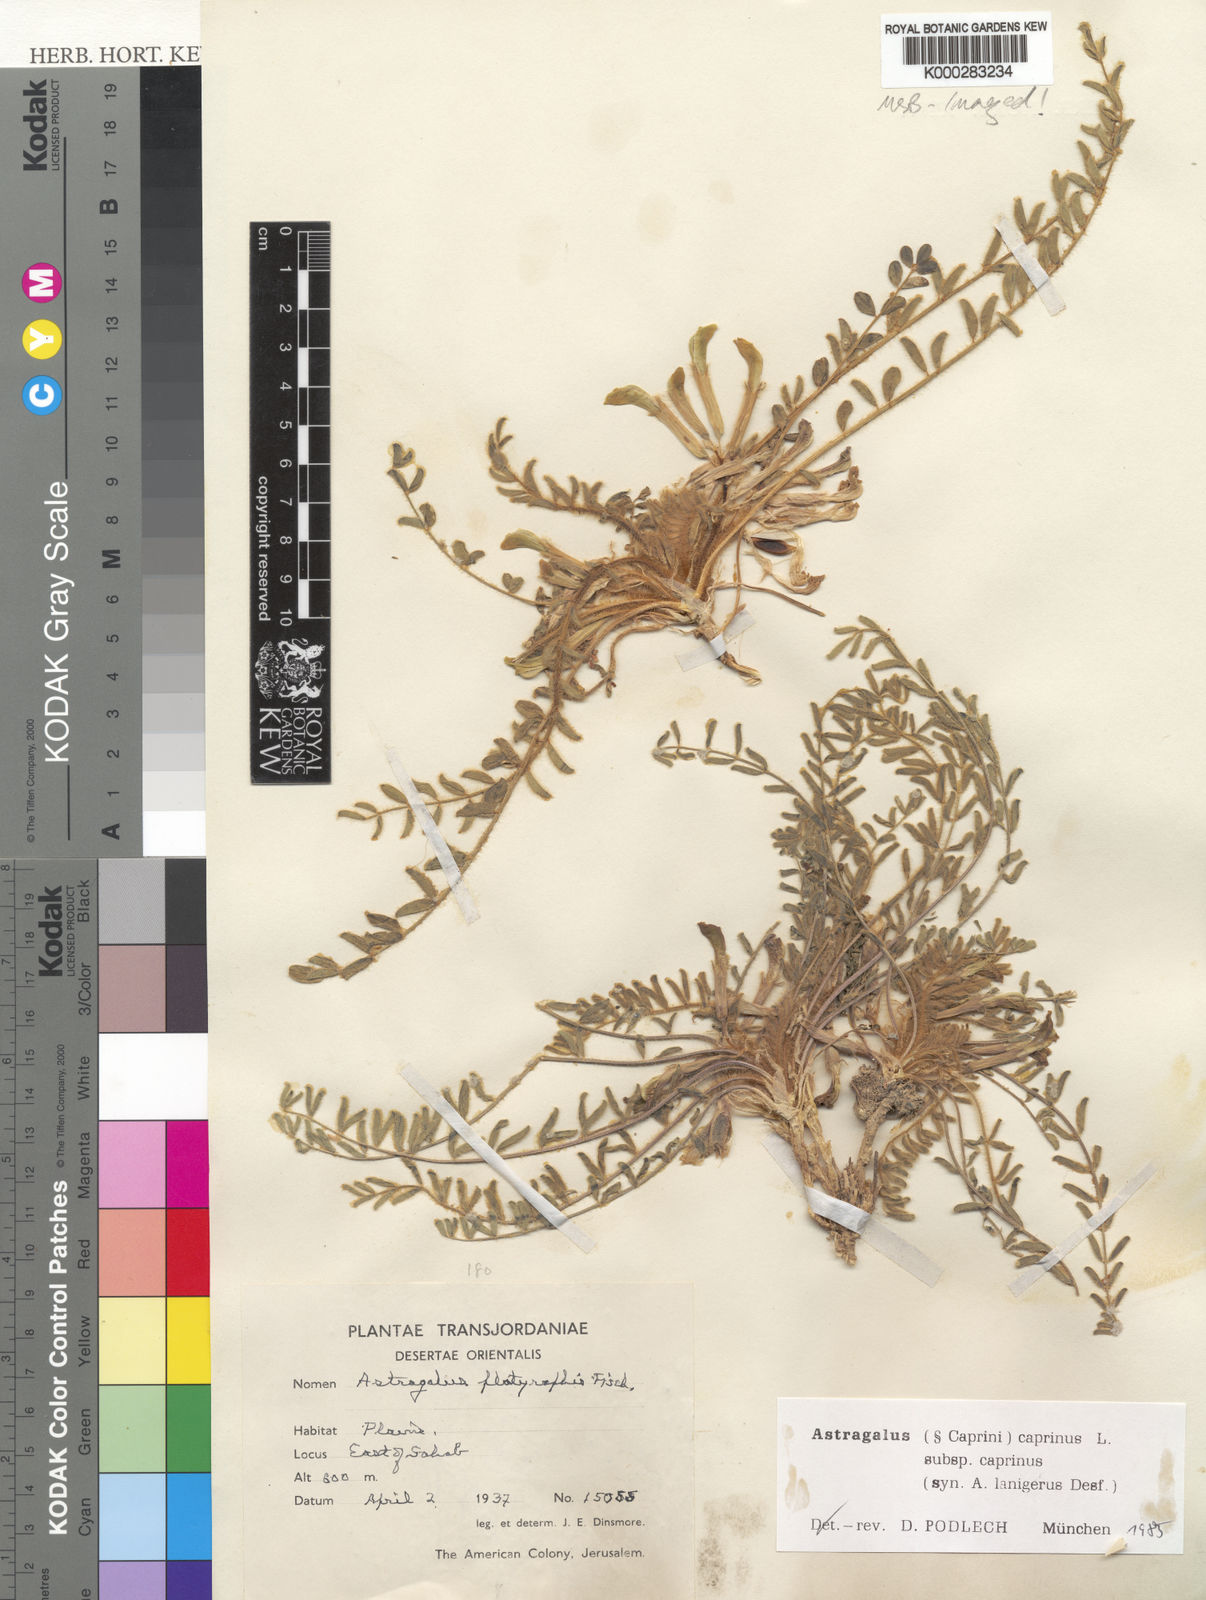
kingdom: Plantae
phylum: Tracheophyta
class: Magnoliopsida
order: Fabales
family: Fabaceae
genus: Astragalus
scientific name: Astragalus caprinus
